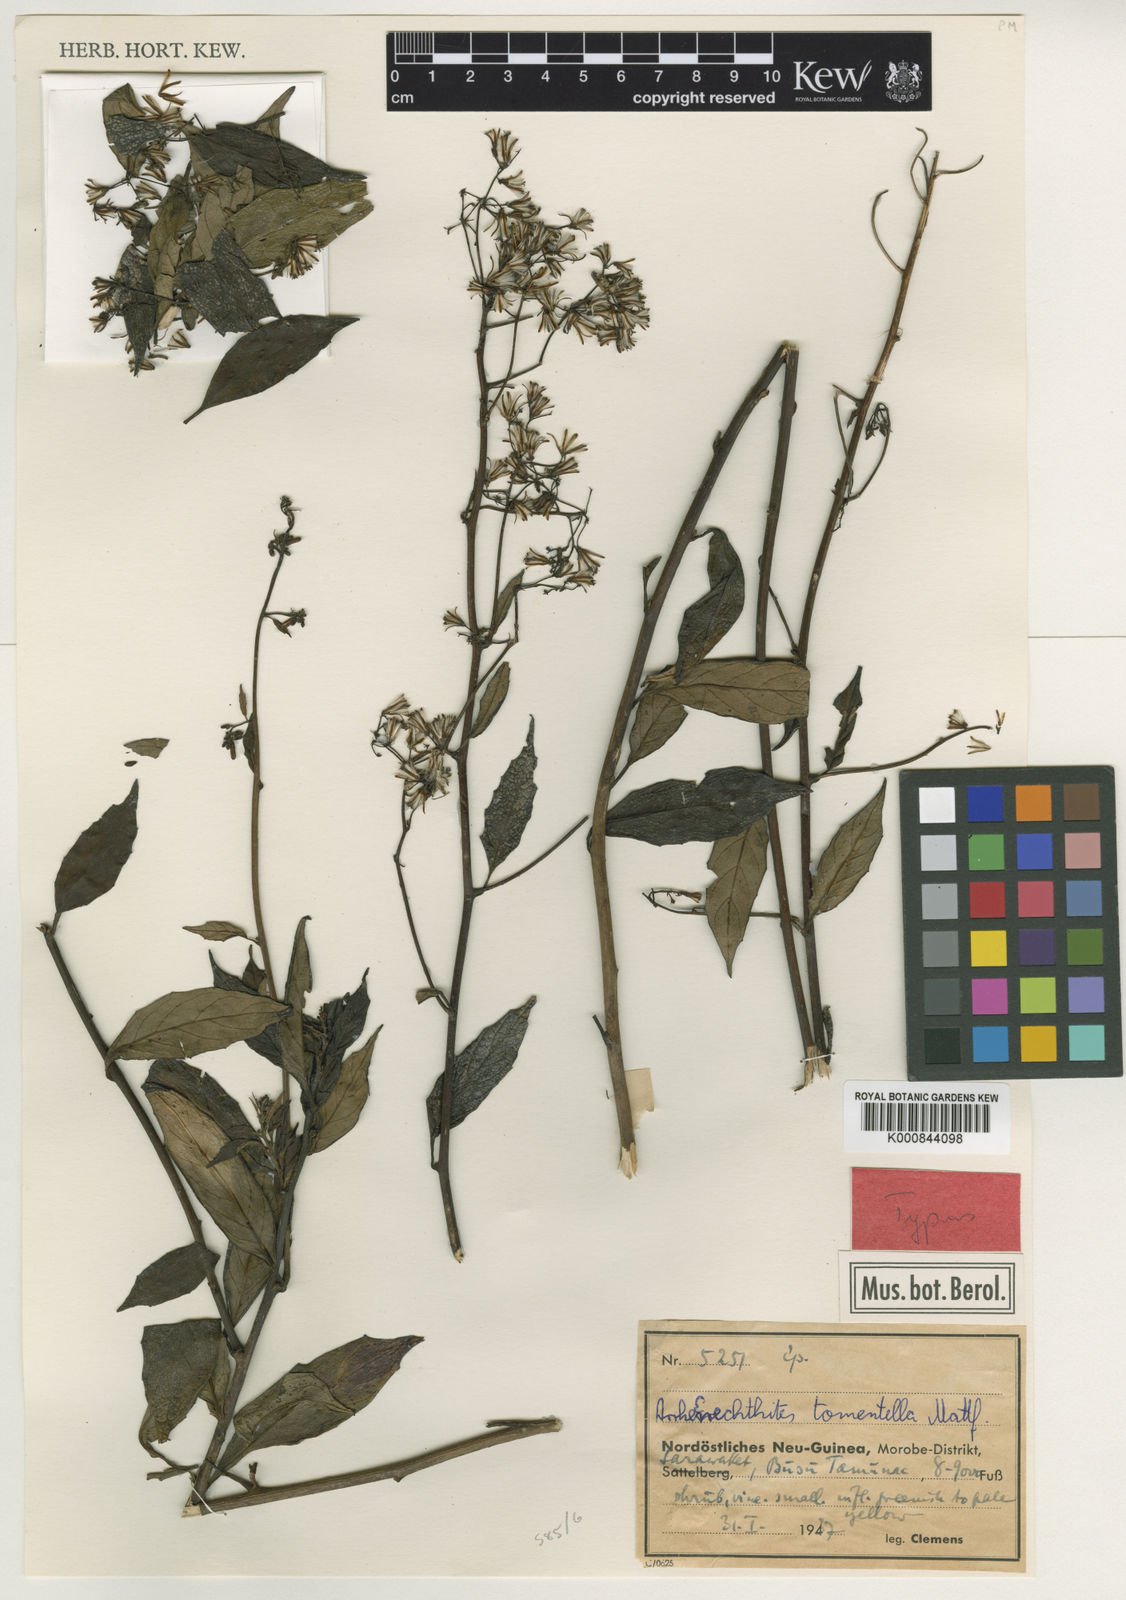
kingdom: Plantae
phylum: Tracheophyta
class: Magnoliopsida
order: Asterales
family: Asteraceae
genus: Arrhenechthites
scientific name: Arrhenechthites tomentellus
